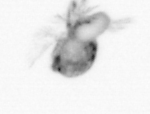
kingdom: Animalia
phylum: Arthropoda
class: Copepoda
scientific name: Copepoda
